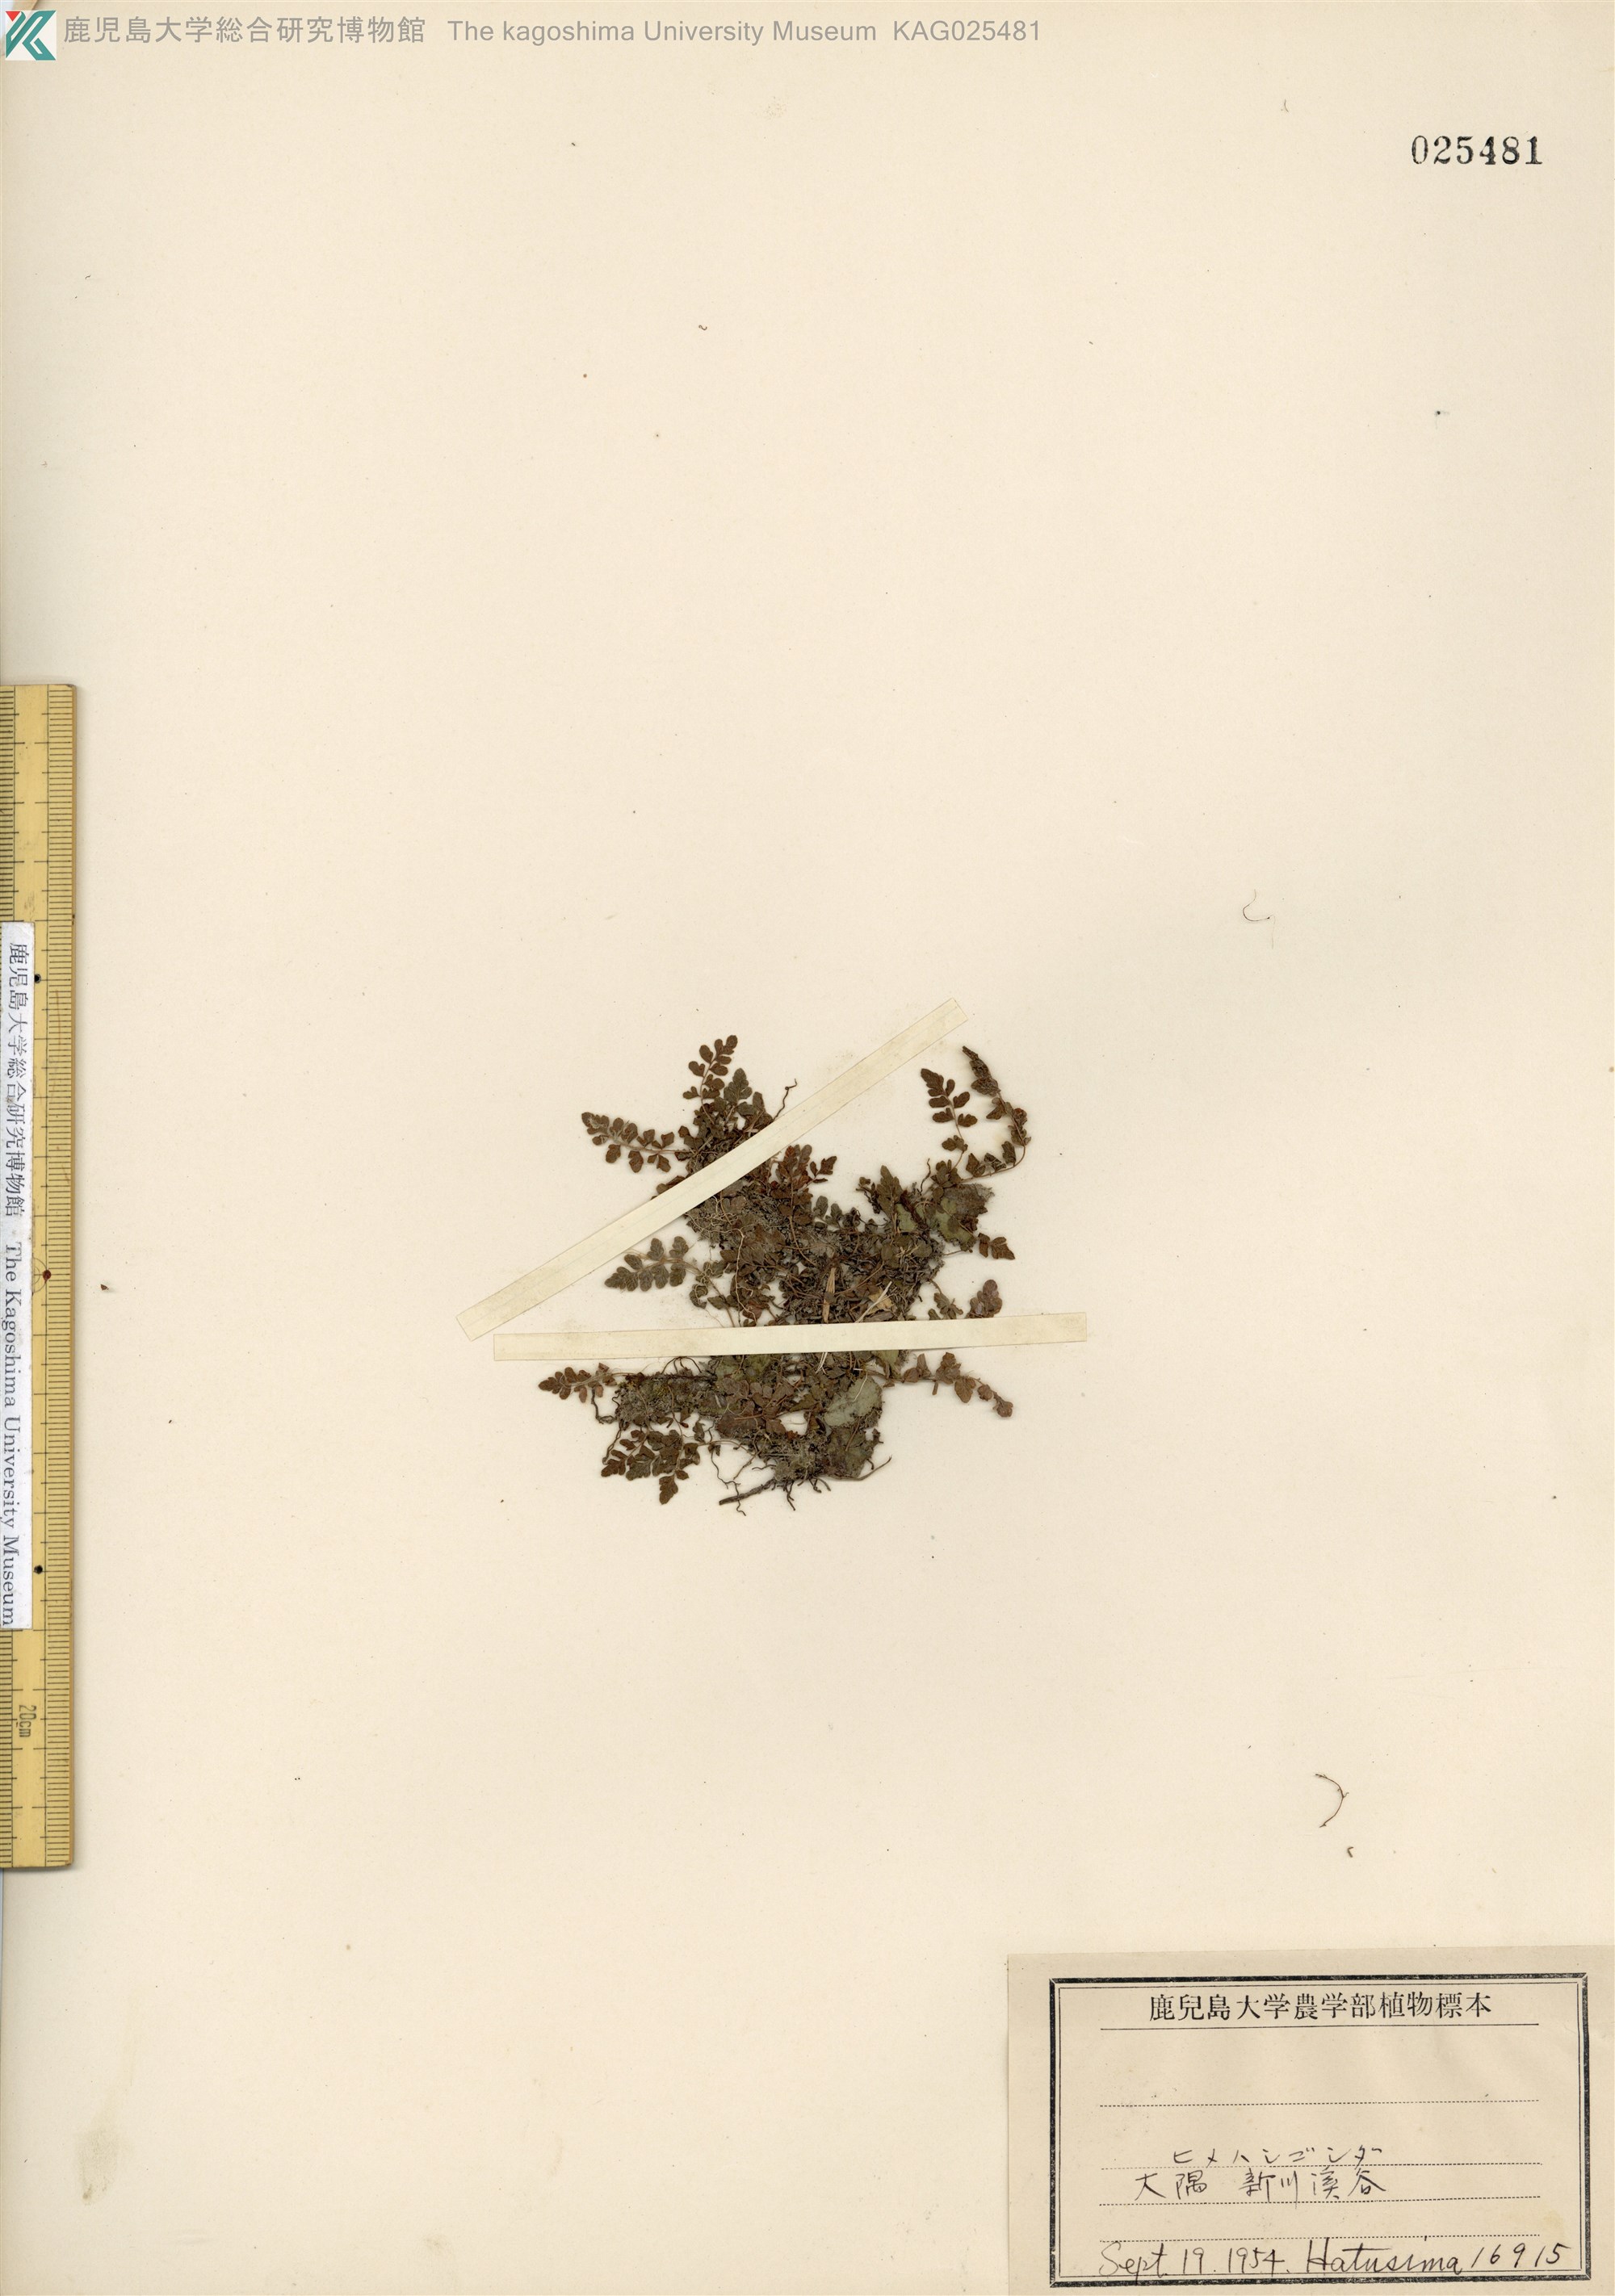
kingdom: Plantae
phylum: Tracheophyta
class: Polypodiopsida
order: Polypodiales
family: Thelypteridaceae
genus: Amauropelta
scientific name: Amauropelta cystopteroides
